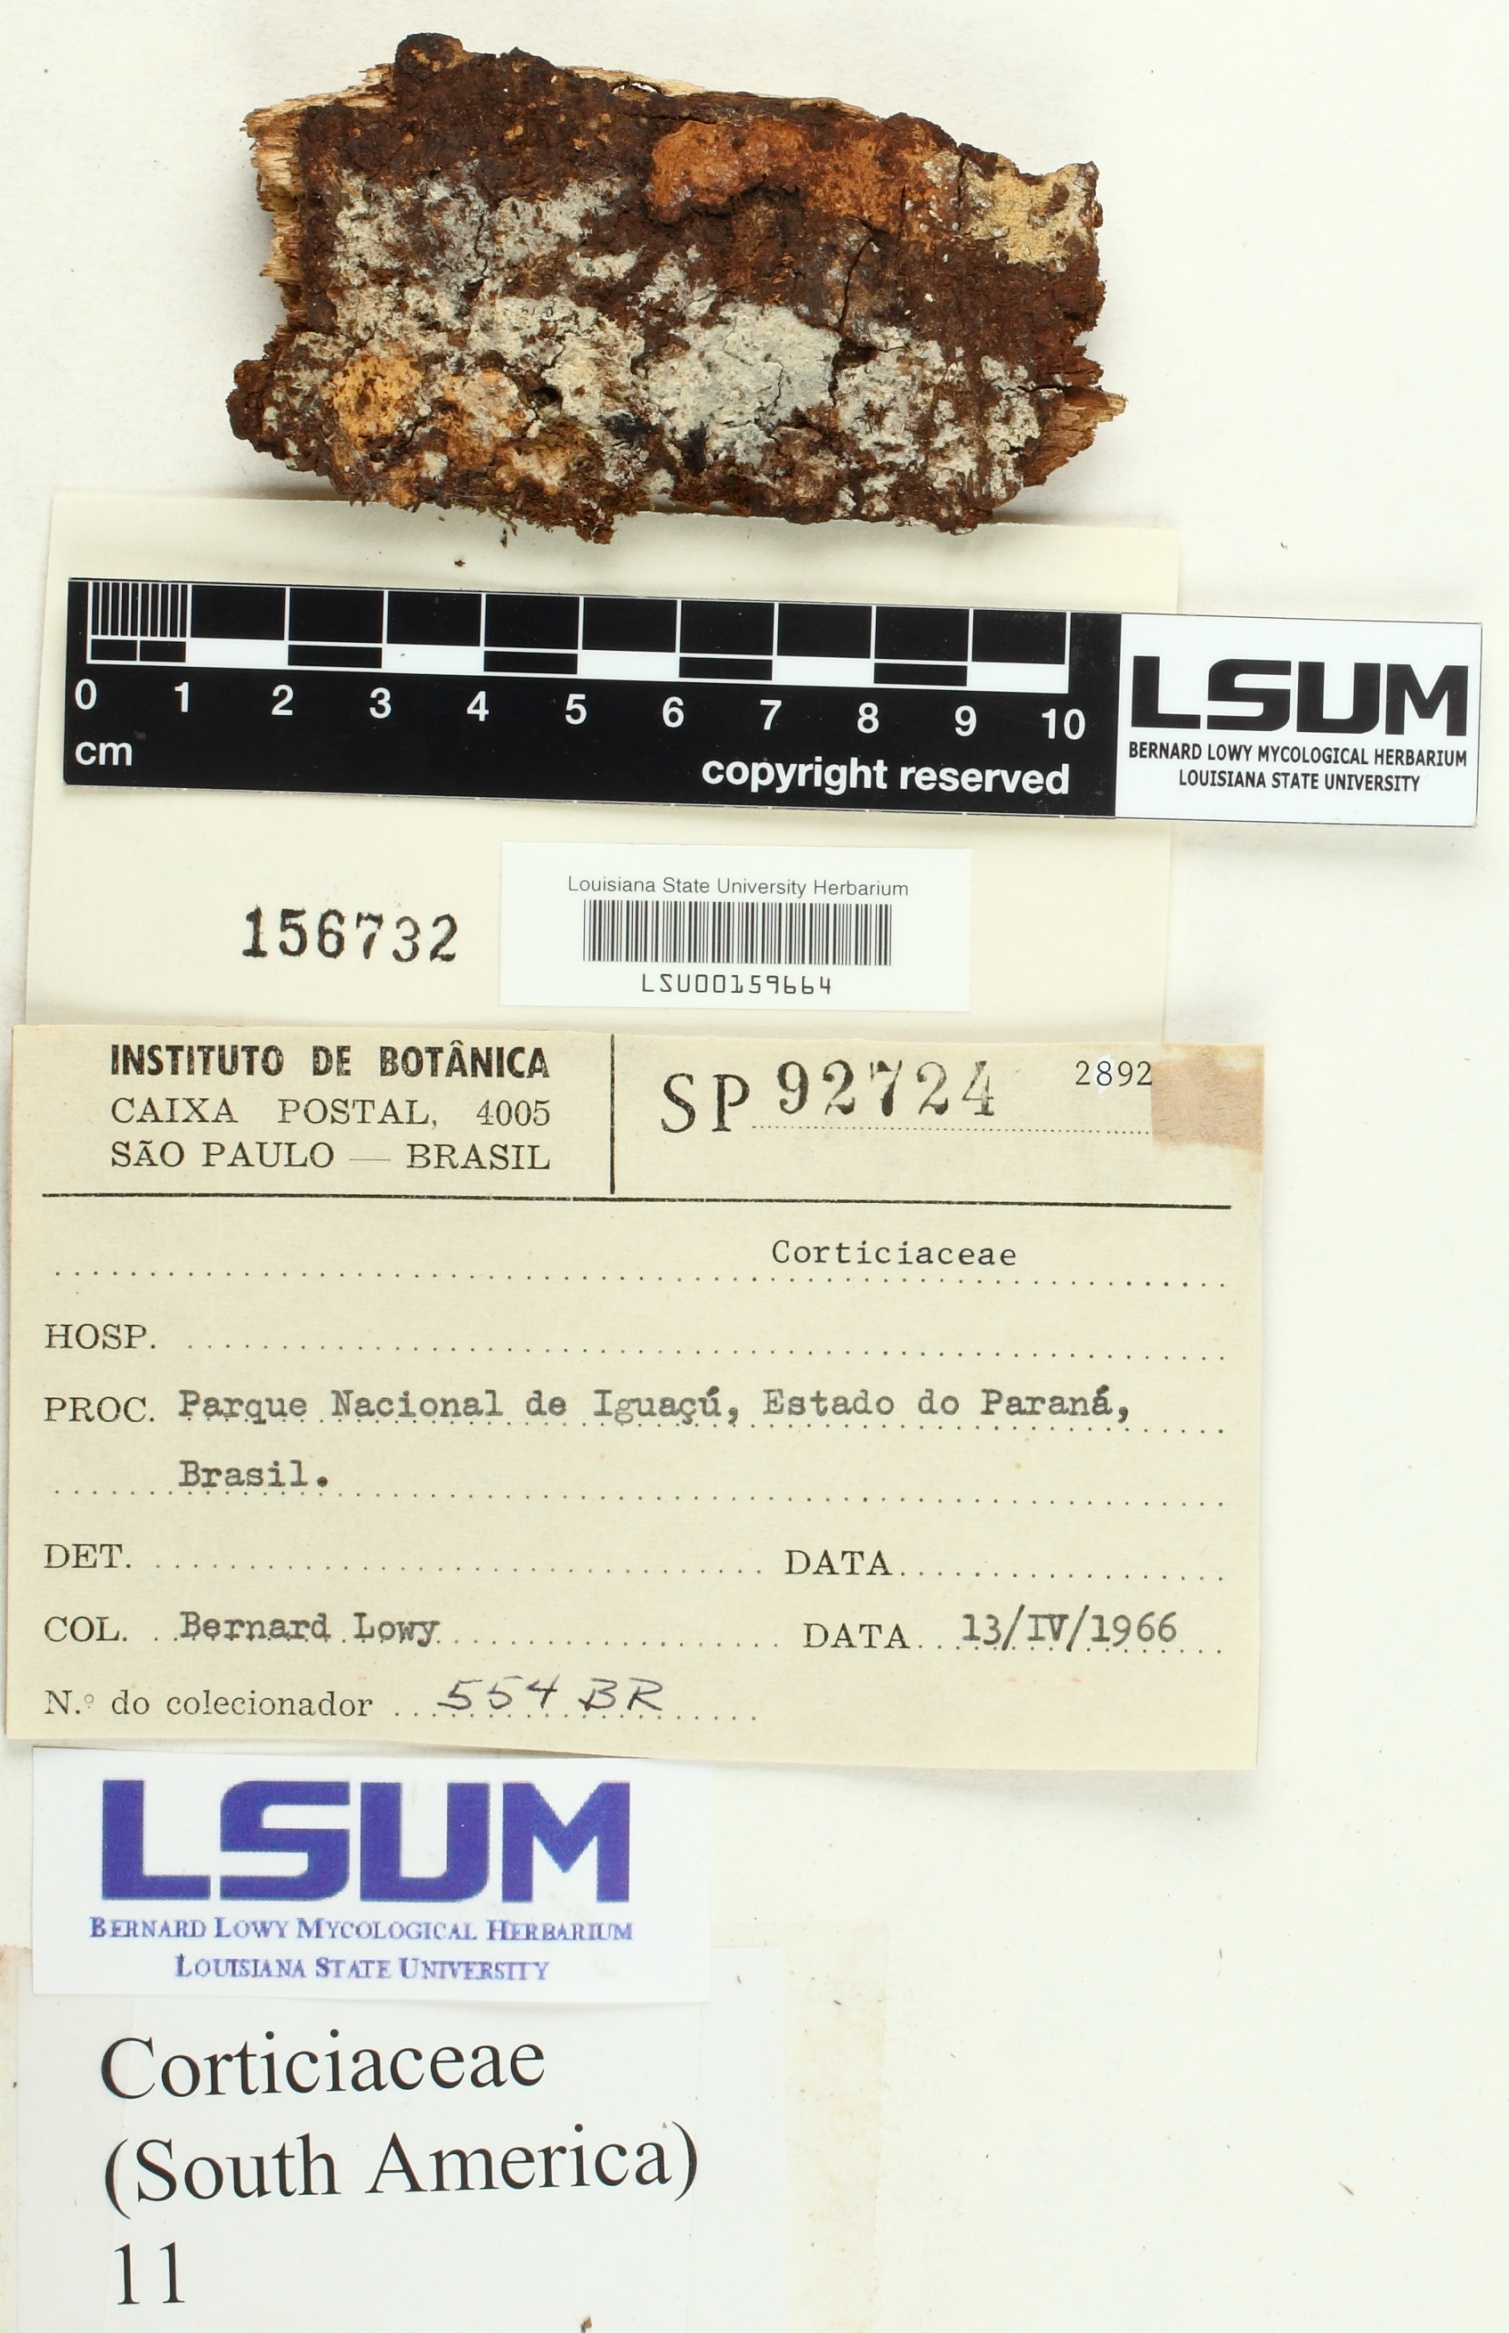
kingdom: Fungi
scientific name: Fungi
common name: Fungi
